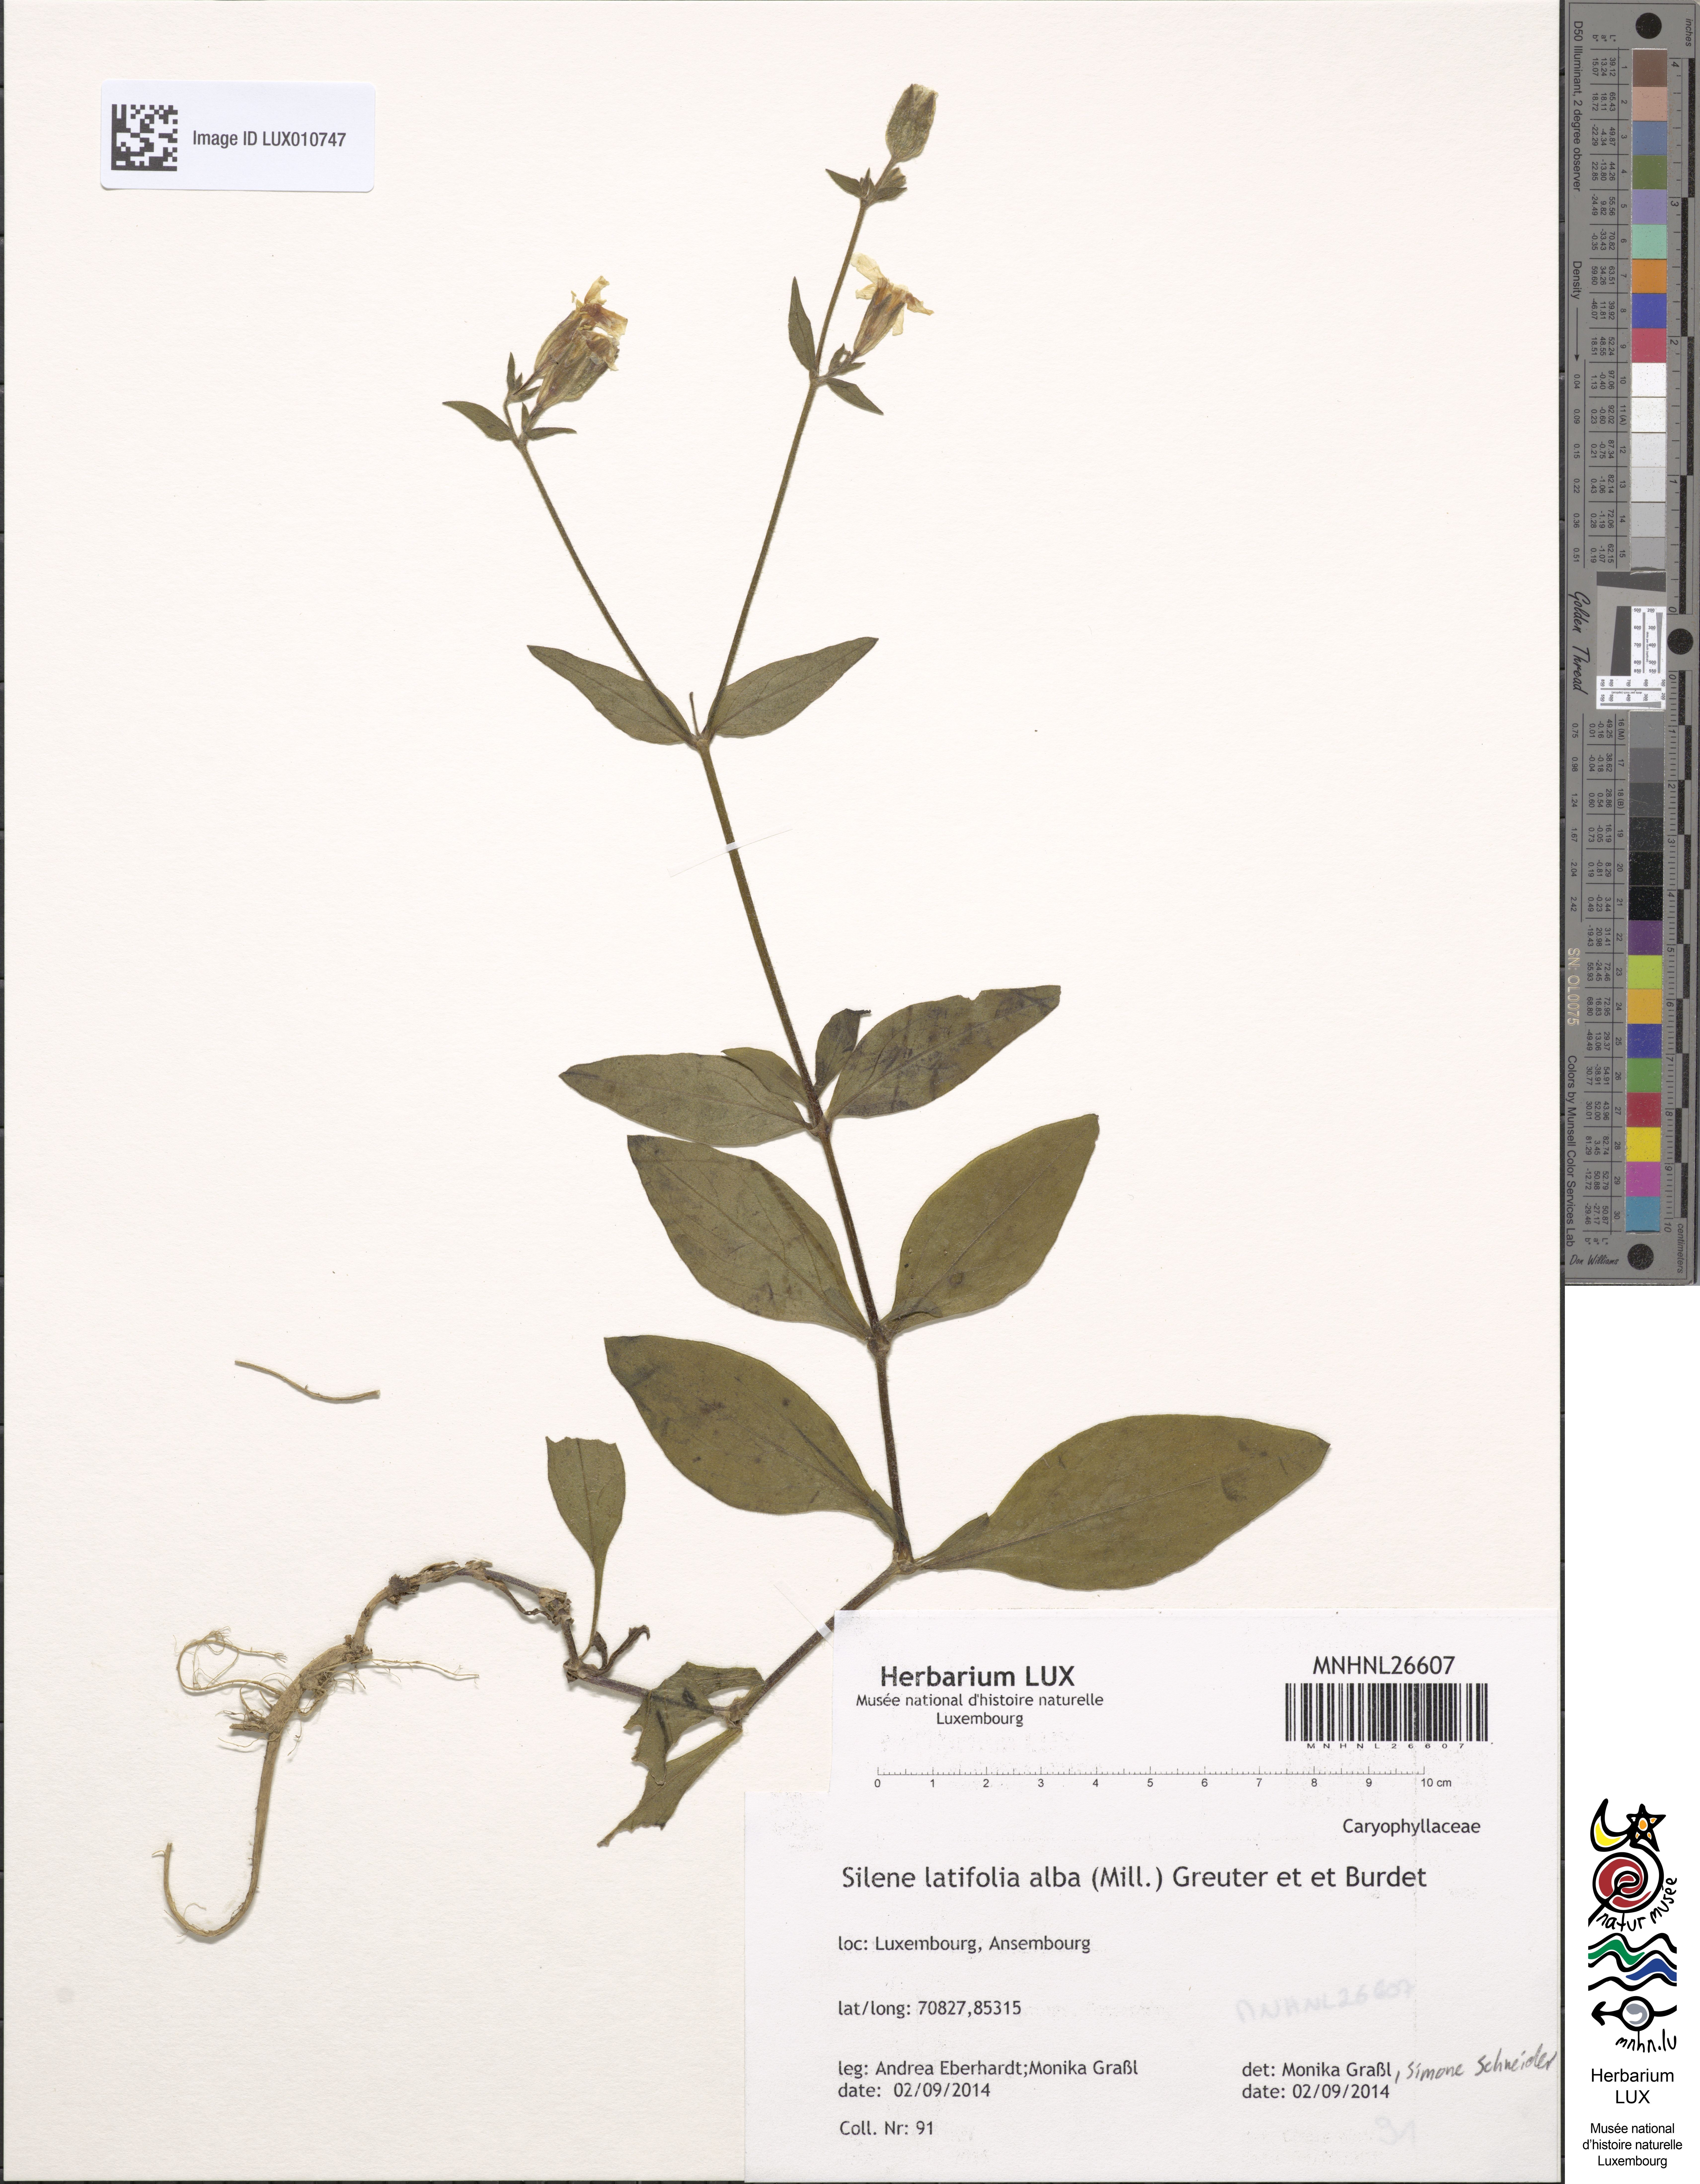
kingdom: Plantae
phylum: Tracheophyta
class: Magnoliopsida
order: Caryophyllales
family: Caryophyllaceae
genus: Silene
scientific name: Silene latifolia
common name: White campion
